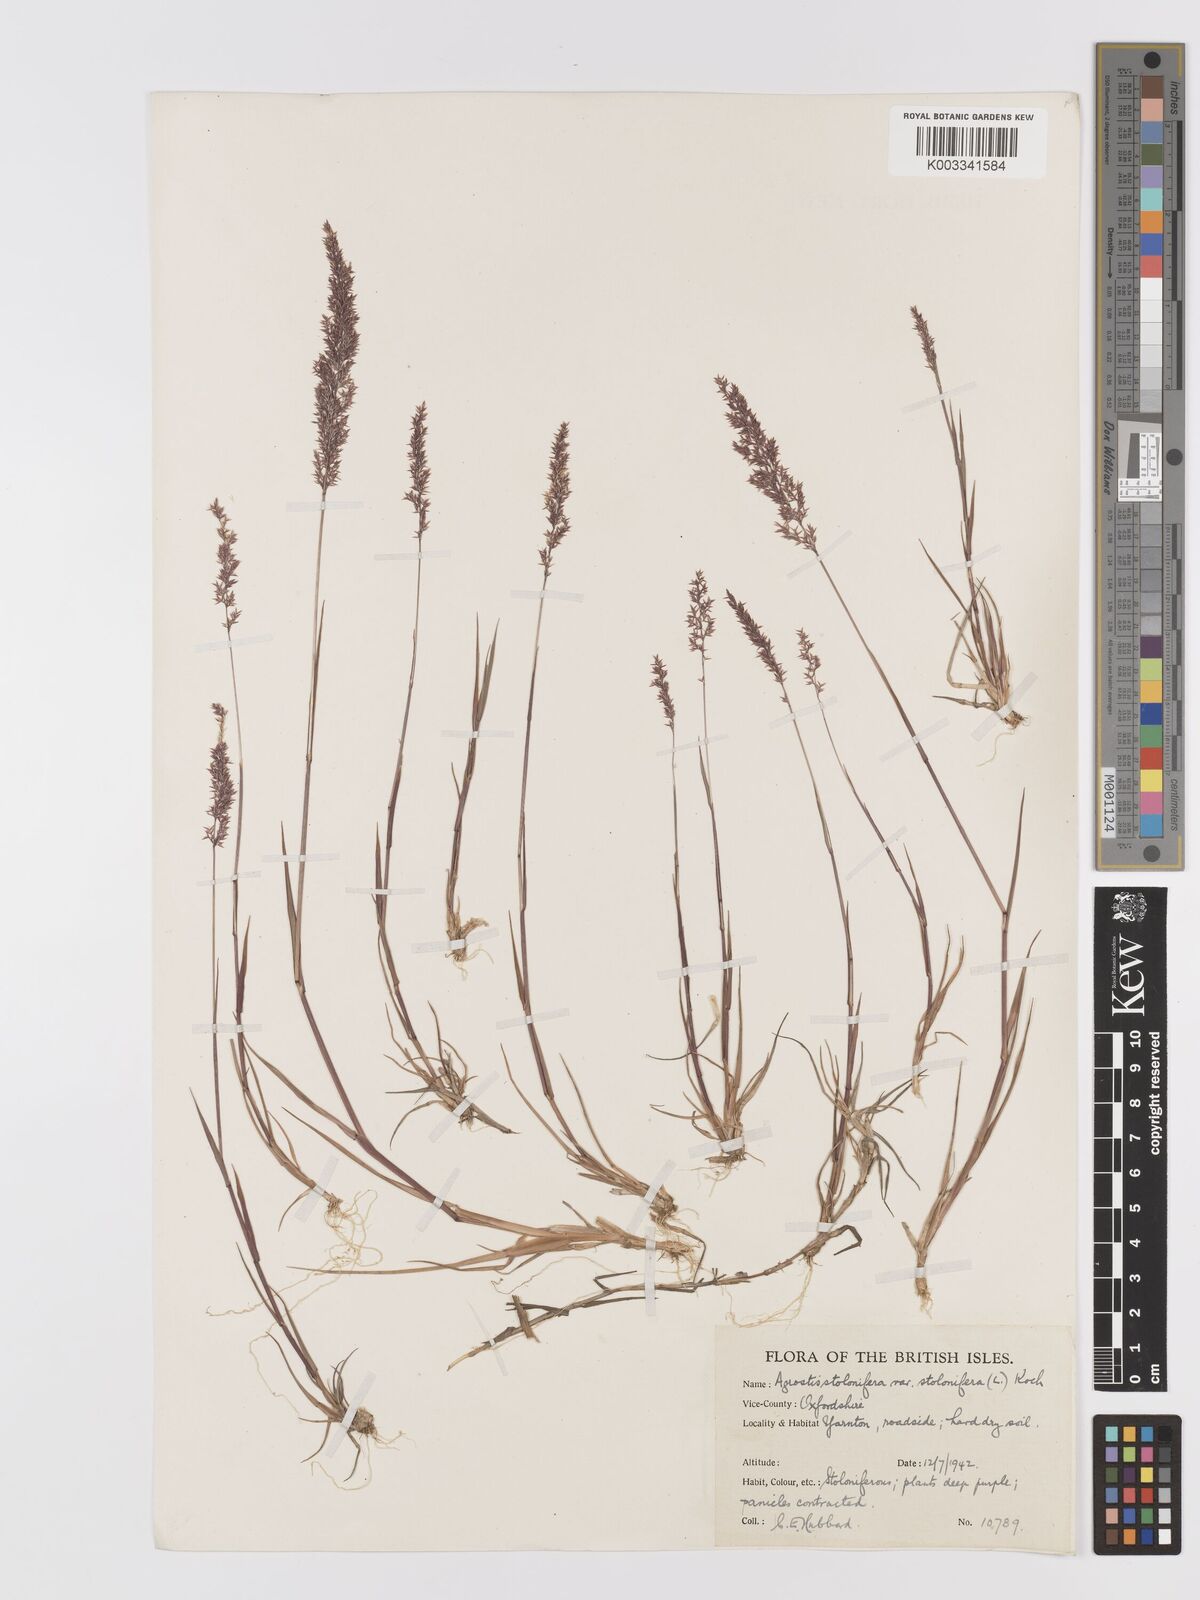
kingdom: Plantae
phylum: Tracheophyta
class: Liliopsida
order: Poales
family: Poaceae
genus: Agrostis
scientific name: Agrostis stolonifera
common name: Creeping bentgrass
